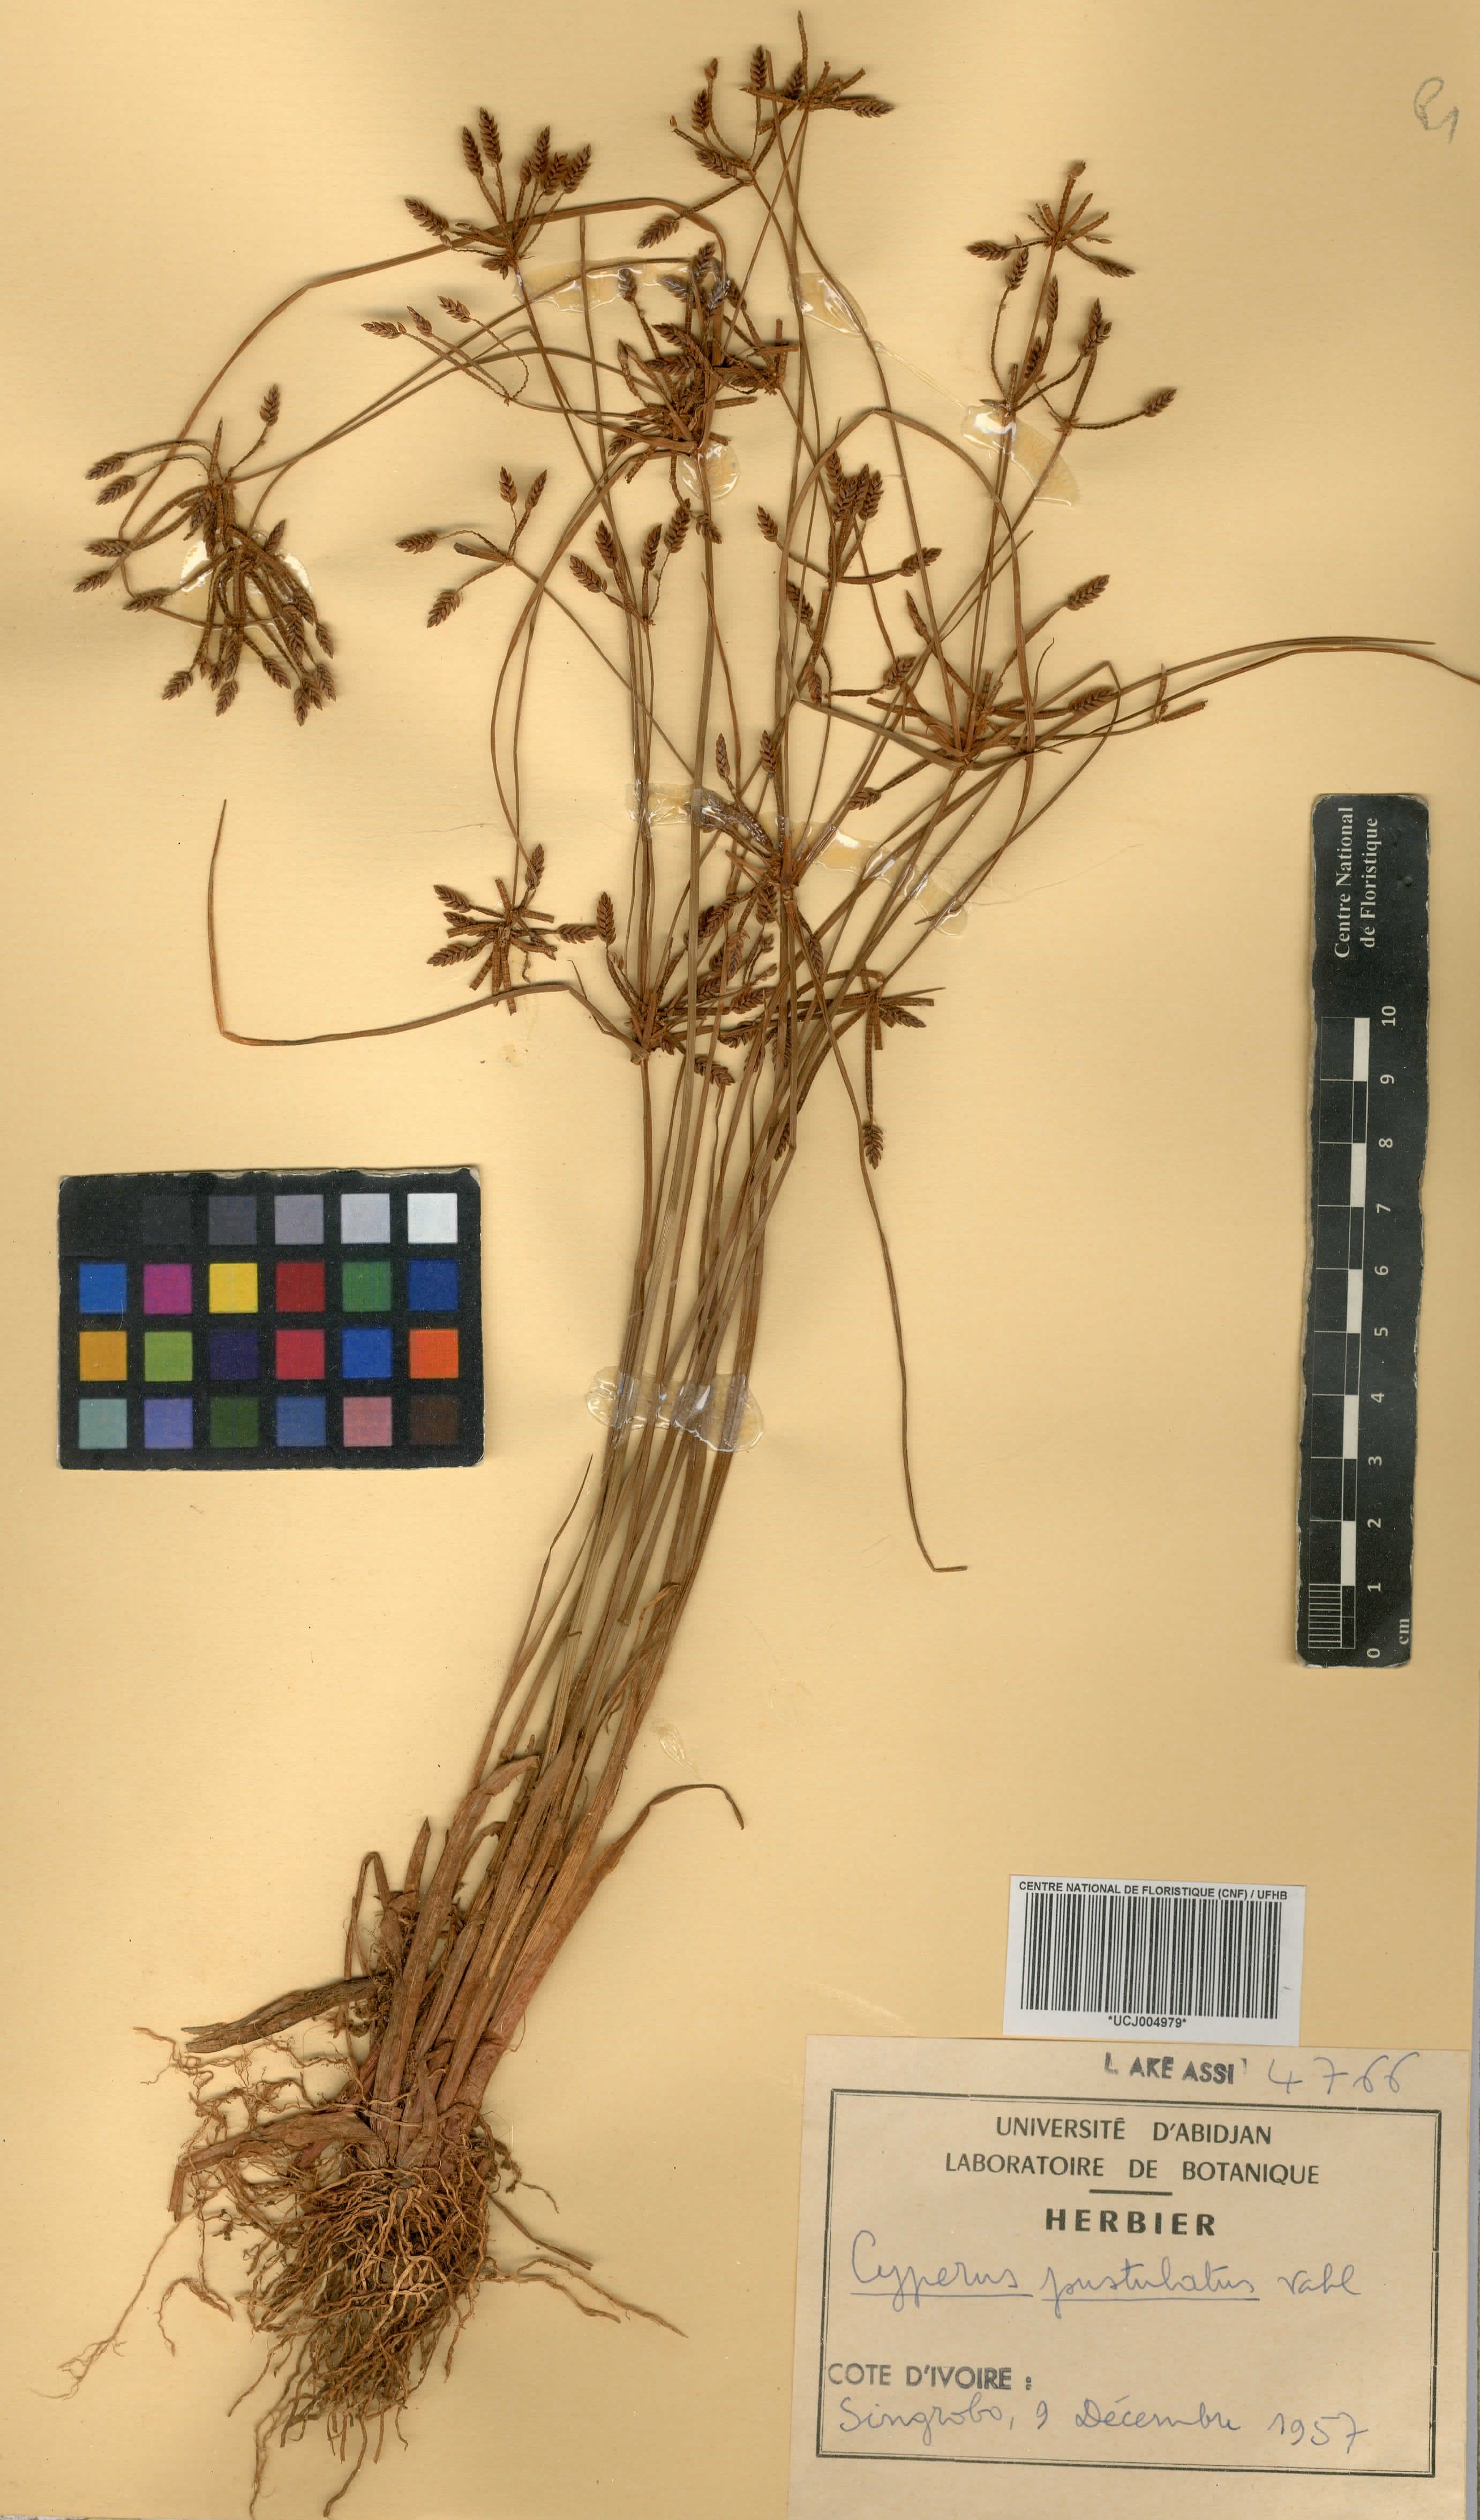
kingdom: Plantae
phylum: Tracheophyta
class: Liliopsida
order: Poales
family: Cyperaceae
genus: Cyperus
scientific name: Cyperus pustulatus
